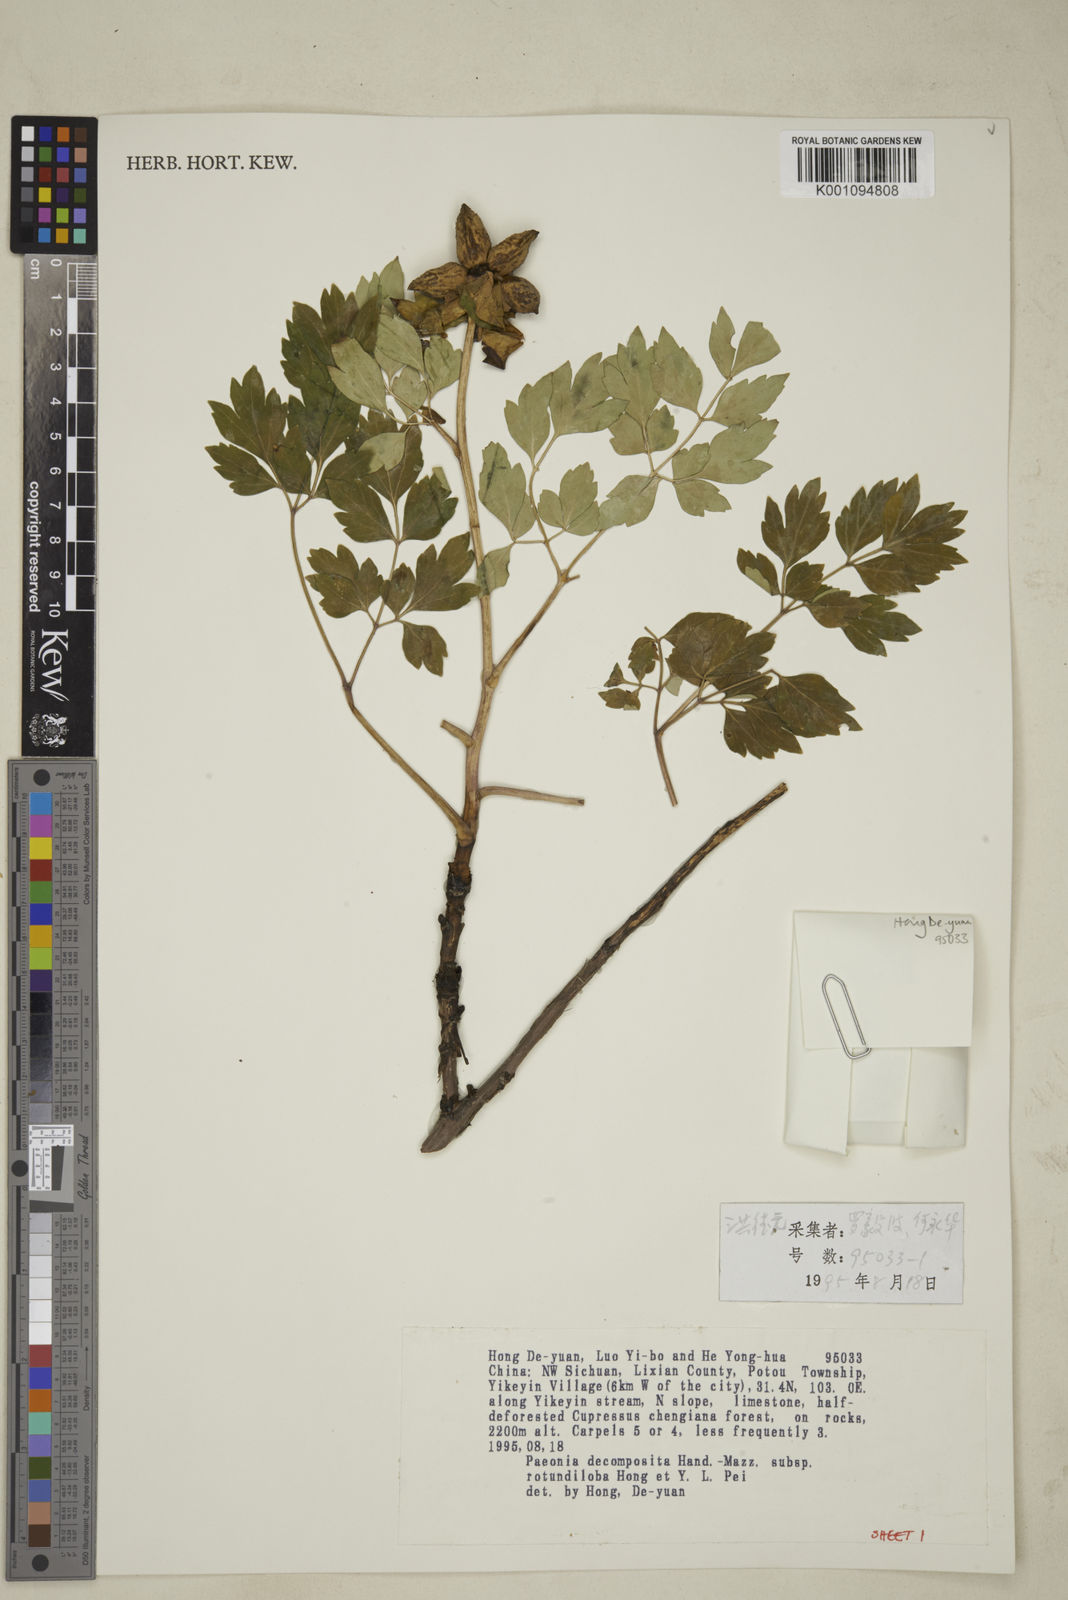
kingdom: Plantae
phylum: Tracheophyta
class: Magnoliopsida
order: Saxifragales
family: Paeoniaceae
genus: Paeonia
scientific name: Paeonia suffruticosa
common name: Moutan peony
